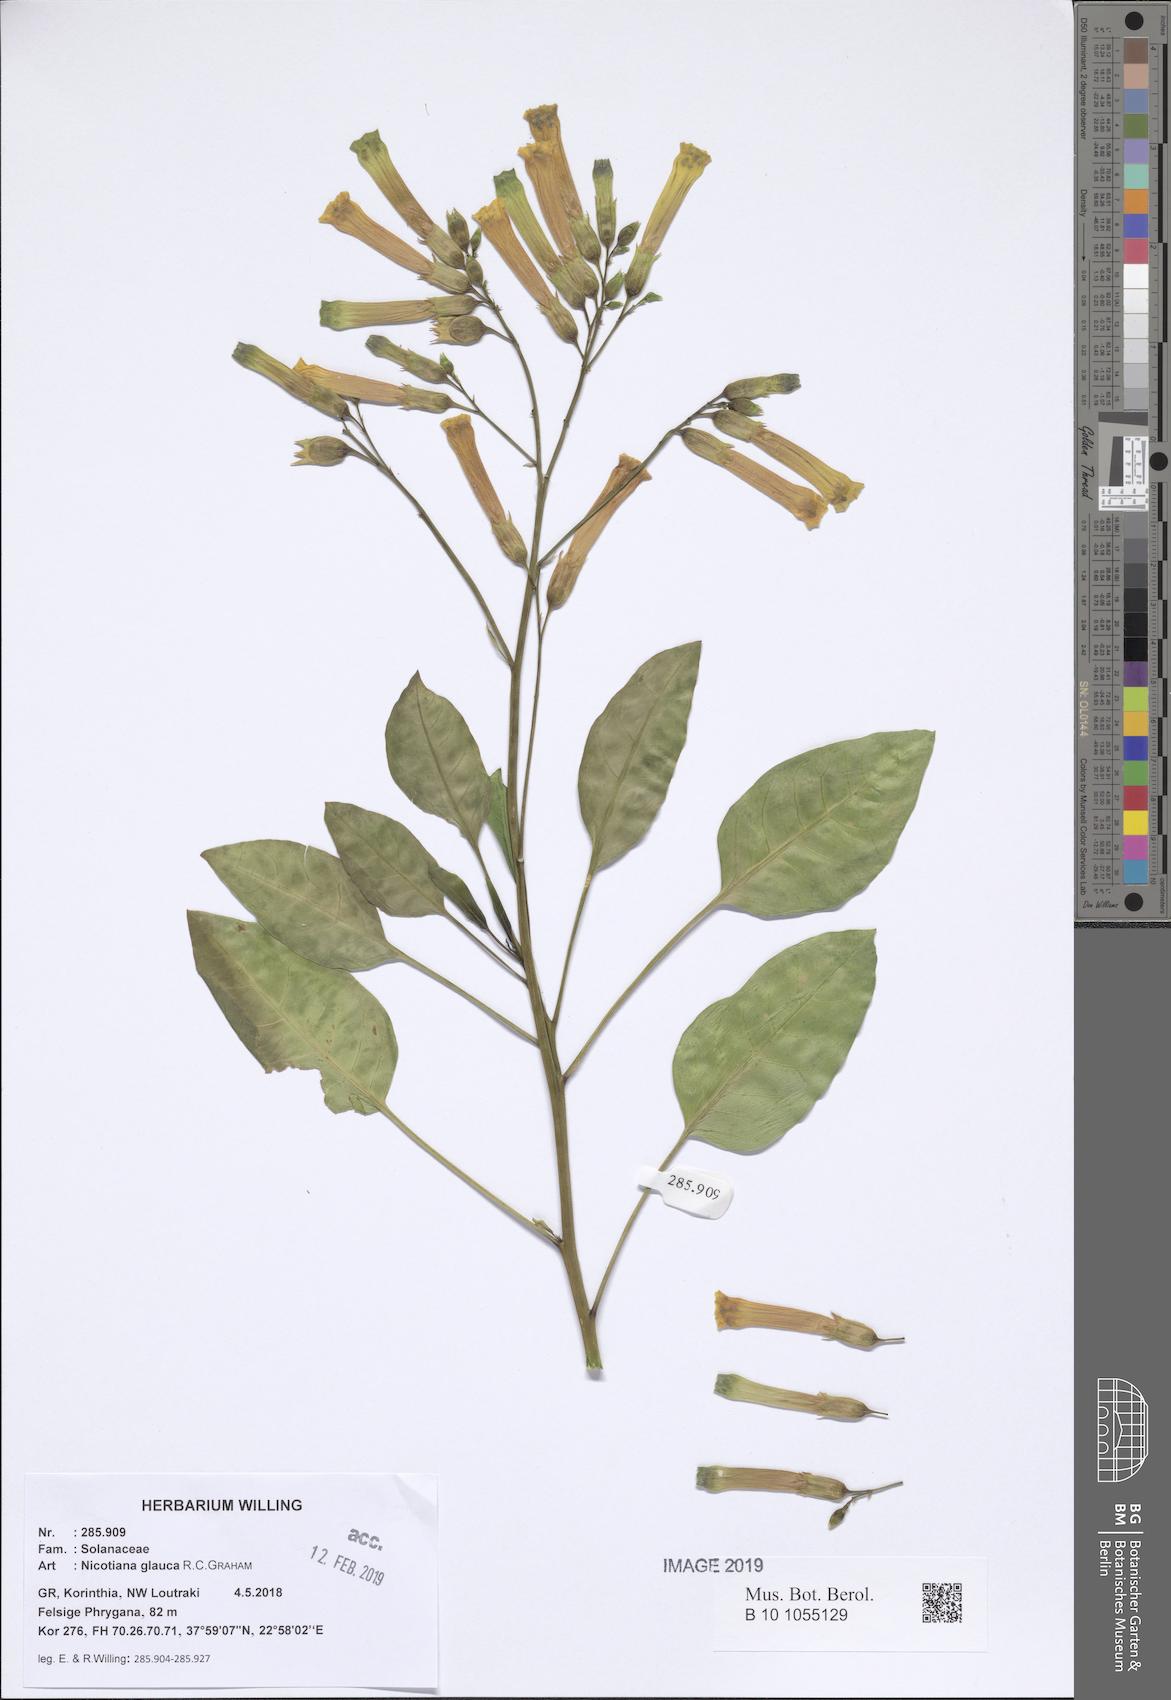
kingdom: Plantae
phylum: Tracheophyta
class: Magnoliopsida
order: Solanales
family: Solanaceae
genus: Nicotiana
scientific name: Nicotiana glauca
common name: Tree tobacco
